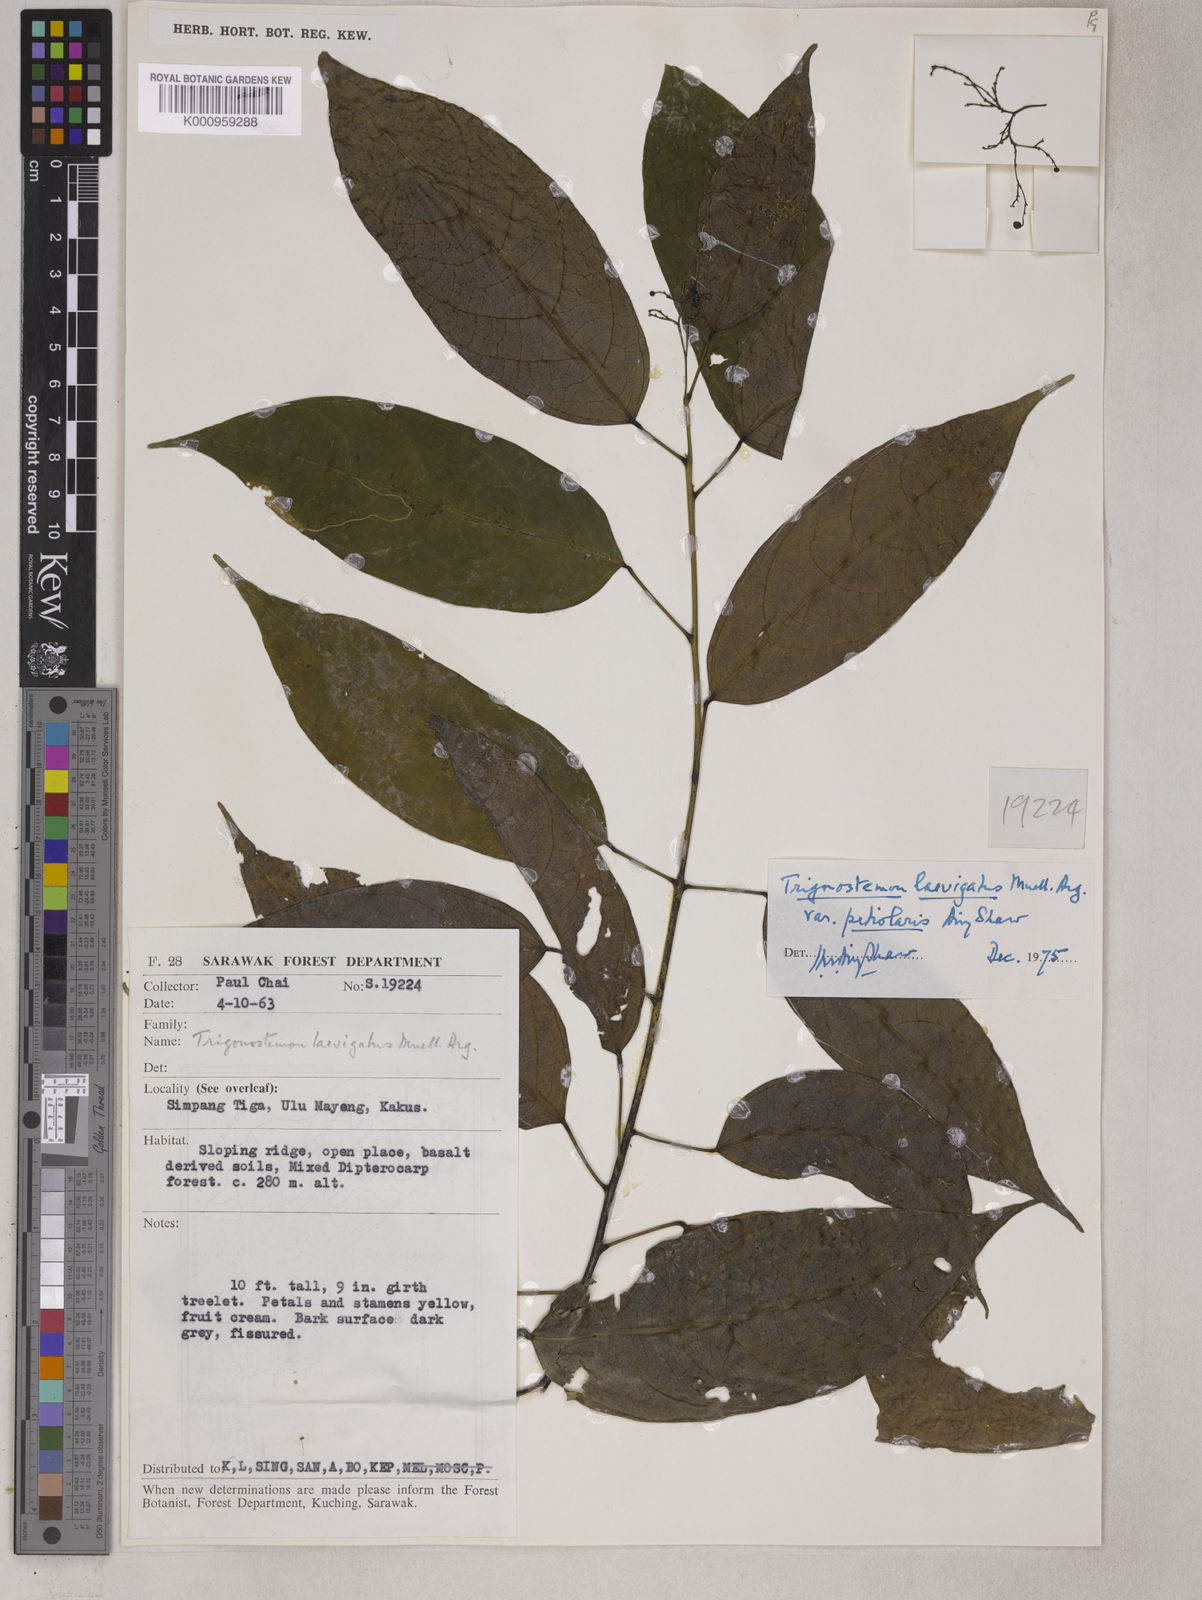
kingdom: Plantae
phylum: Tracheophyta
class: Magnoliopsida
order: Malpighiales
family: Euphorbiaceae
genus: Trigonostemon
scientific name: Trigonostemon laevigatus
